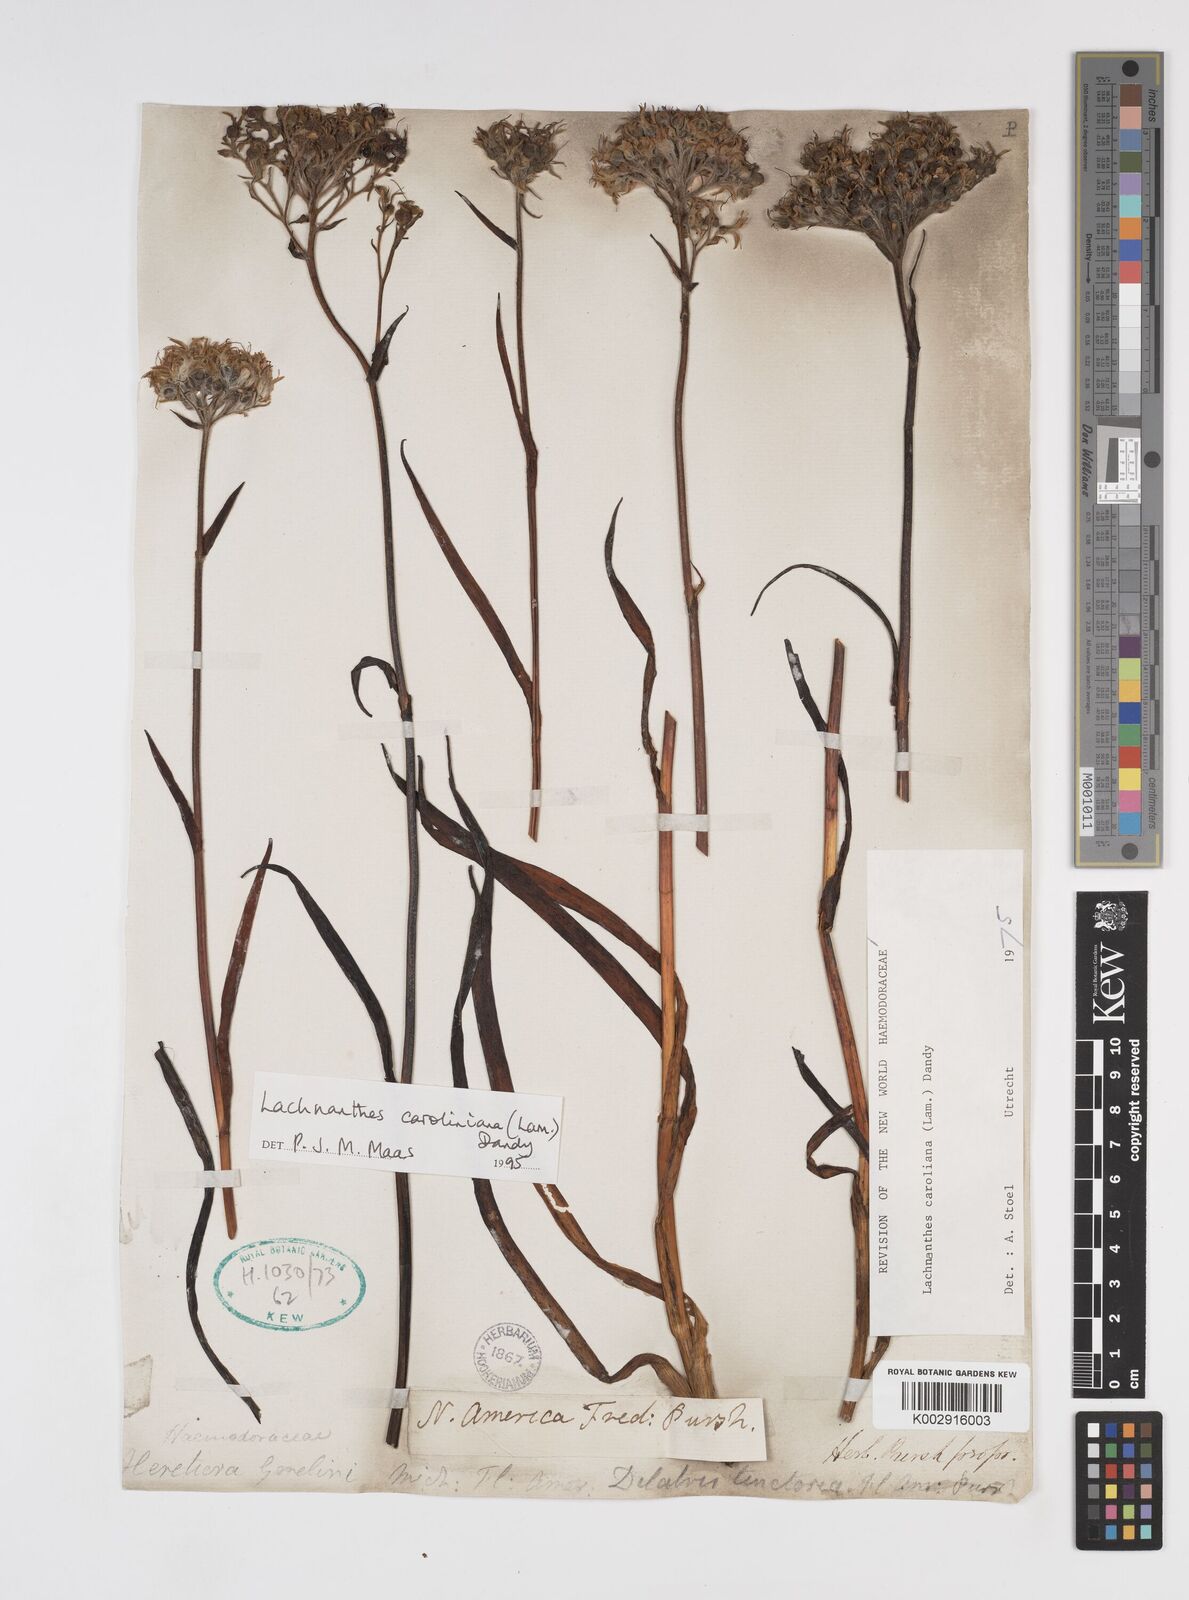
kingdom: Plantae
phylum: Tracheophyta
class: Liliopsida
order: Commelinales
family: Haemodoraceae
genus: Lachnanthes
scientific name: Lachnanthes caroliniana
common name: Carolina redroot
